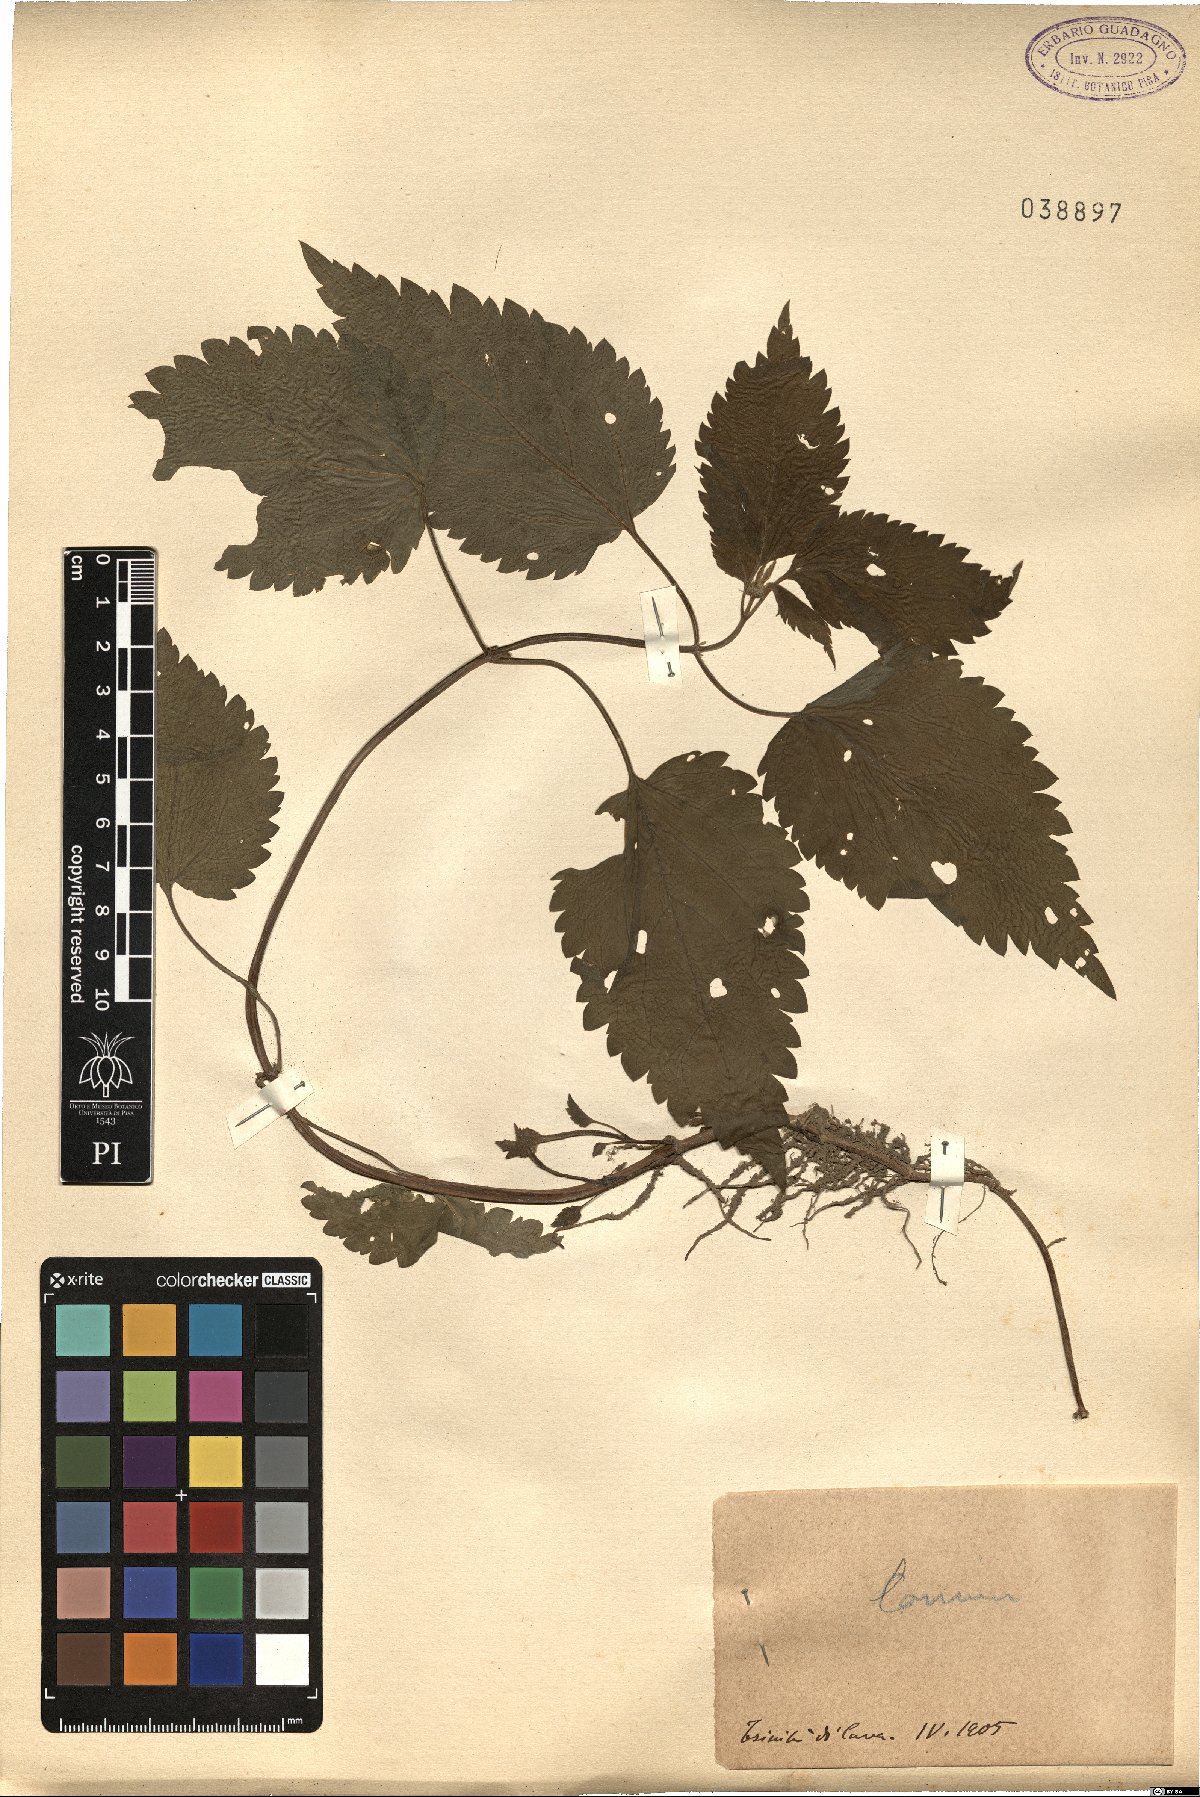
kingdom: Plantae
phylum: Tracheophyta
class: Magnoliopsida
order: Lamiales
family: Lamiaceae
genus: Lamium
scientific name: Lamium
